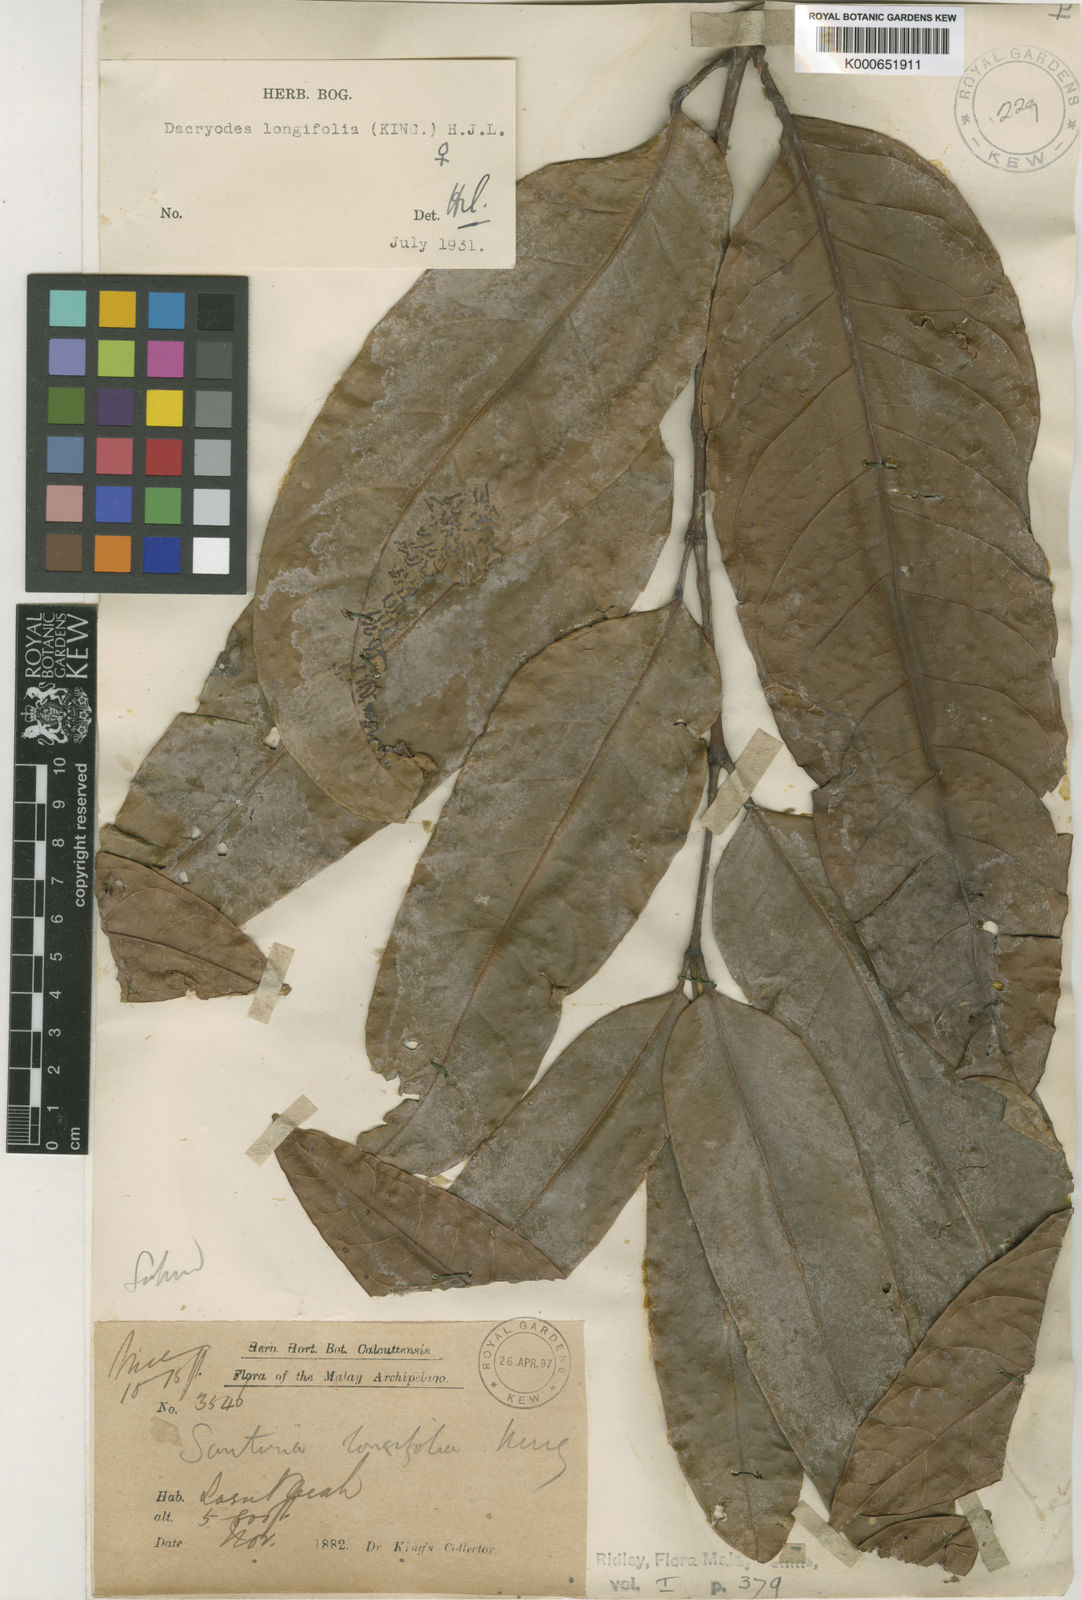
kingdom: Plantae
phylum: Tracheophyta
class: Magnoliopsida
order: Sapindales
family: Burseraceae
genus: Dacryodes
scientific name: Dacryodes longifolia
